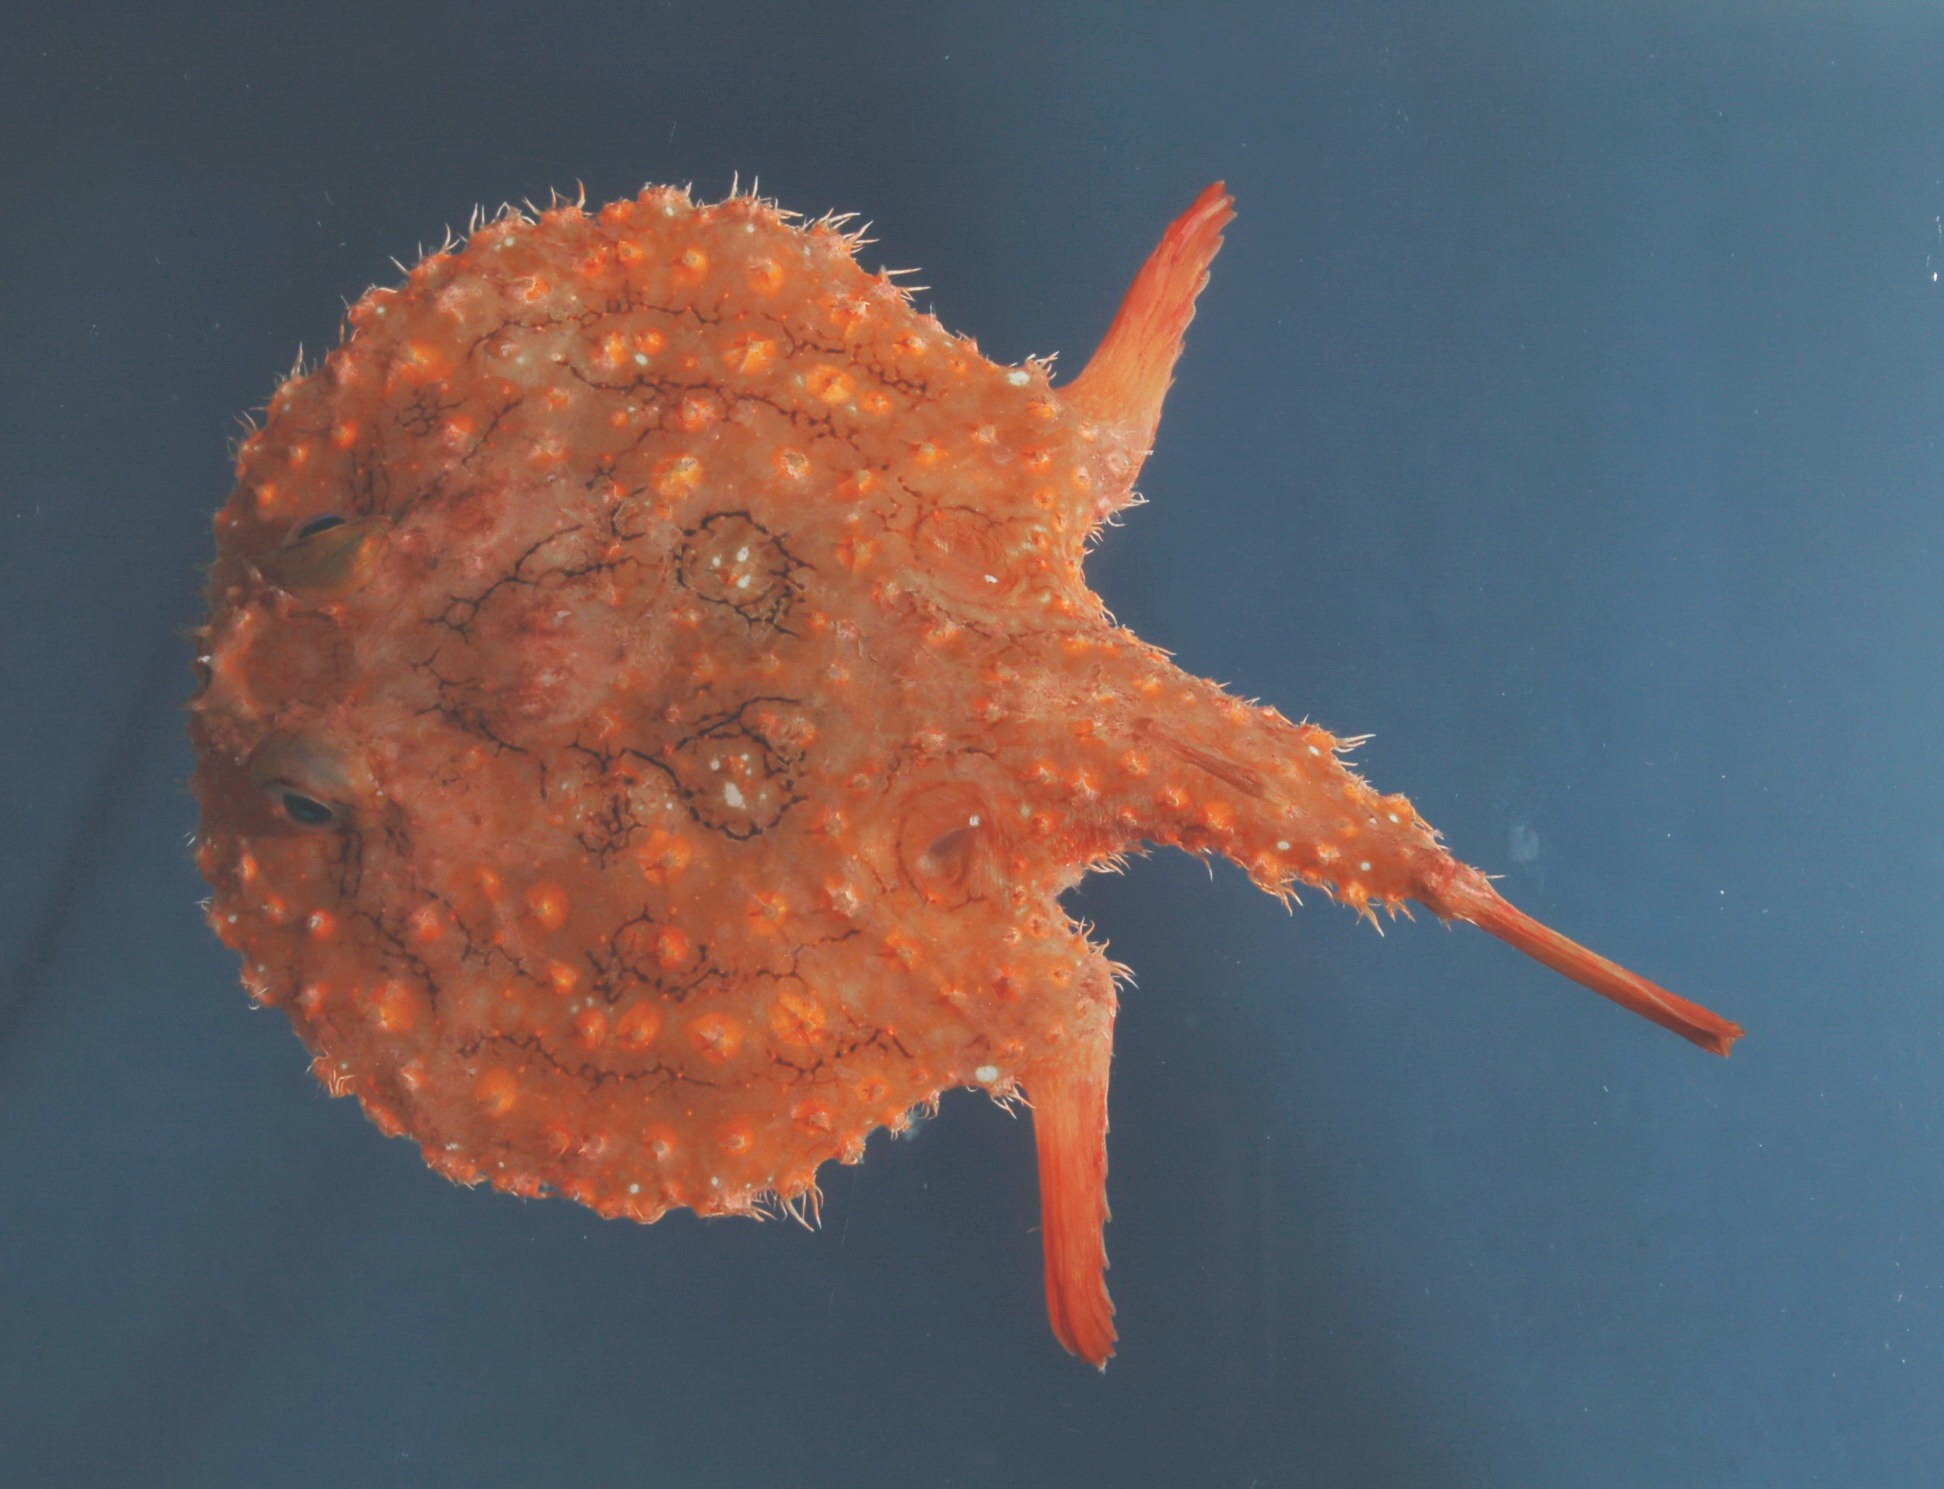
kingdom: Animalia
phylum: Chordata
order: Lophiiformes
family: Ogcocephalidae
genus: Halieutaea
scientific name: Halieutaea fitzsimonsi
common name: Circular seabat
